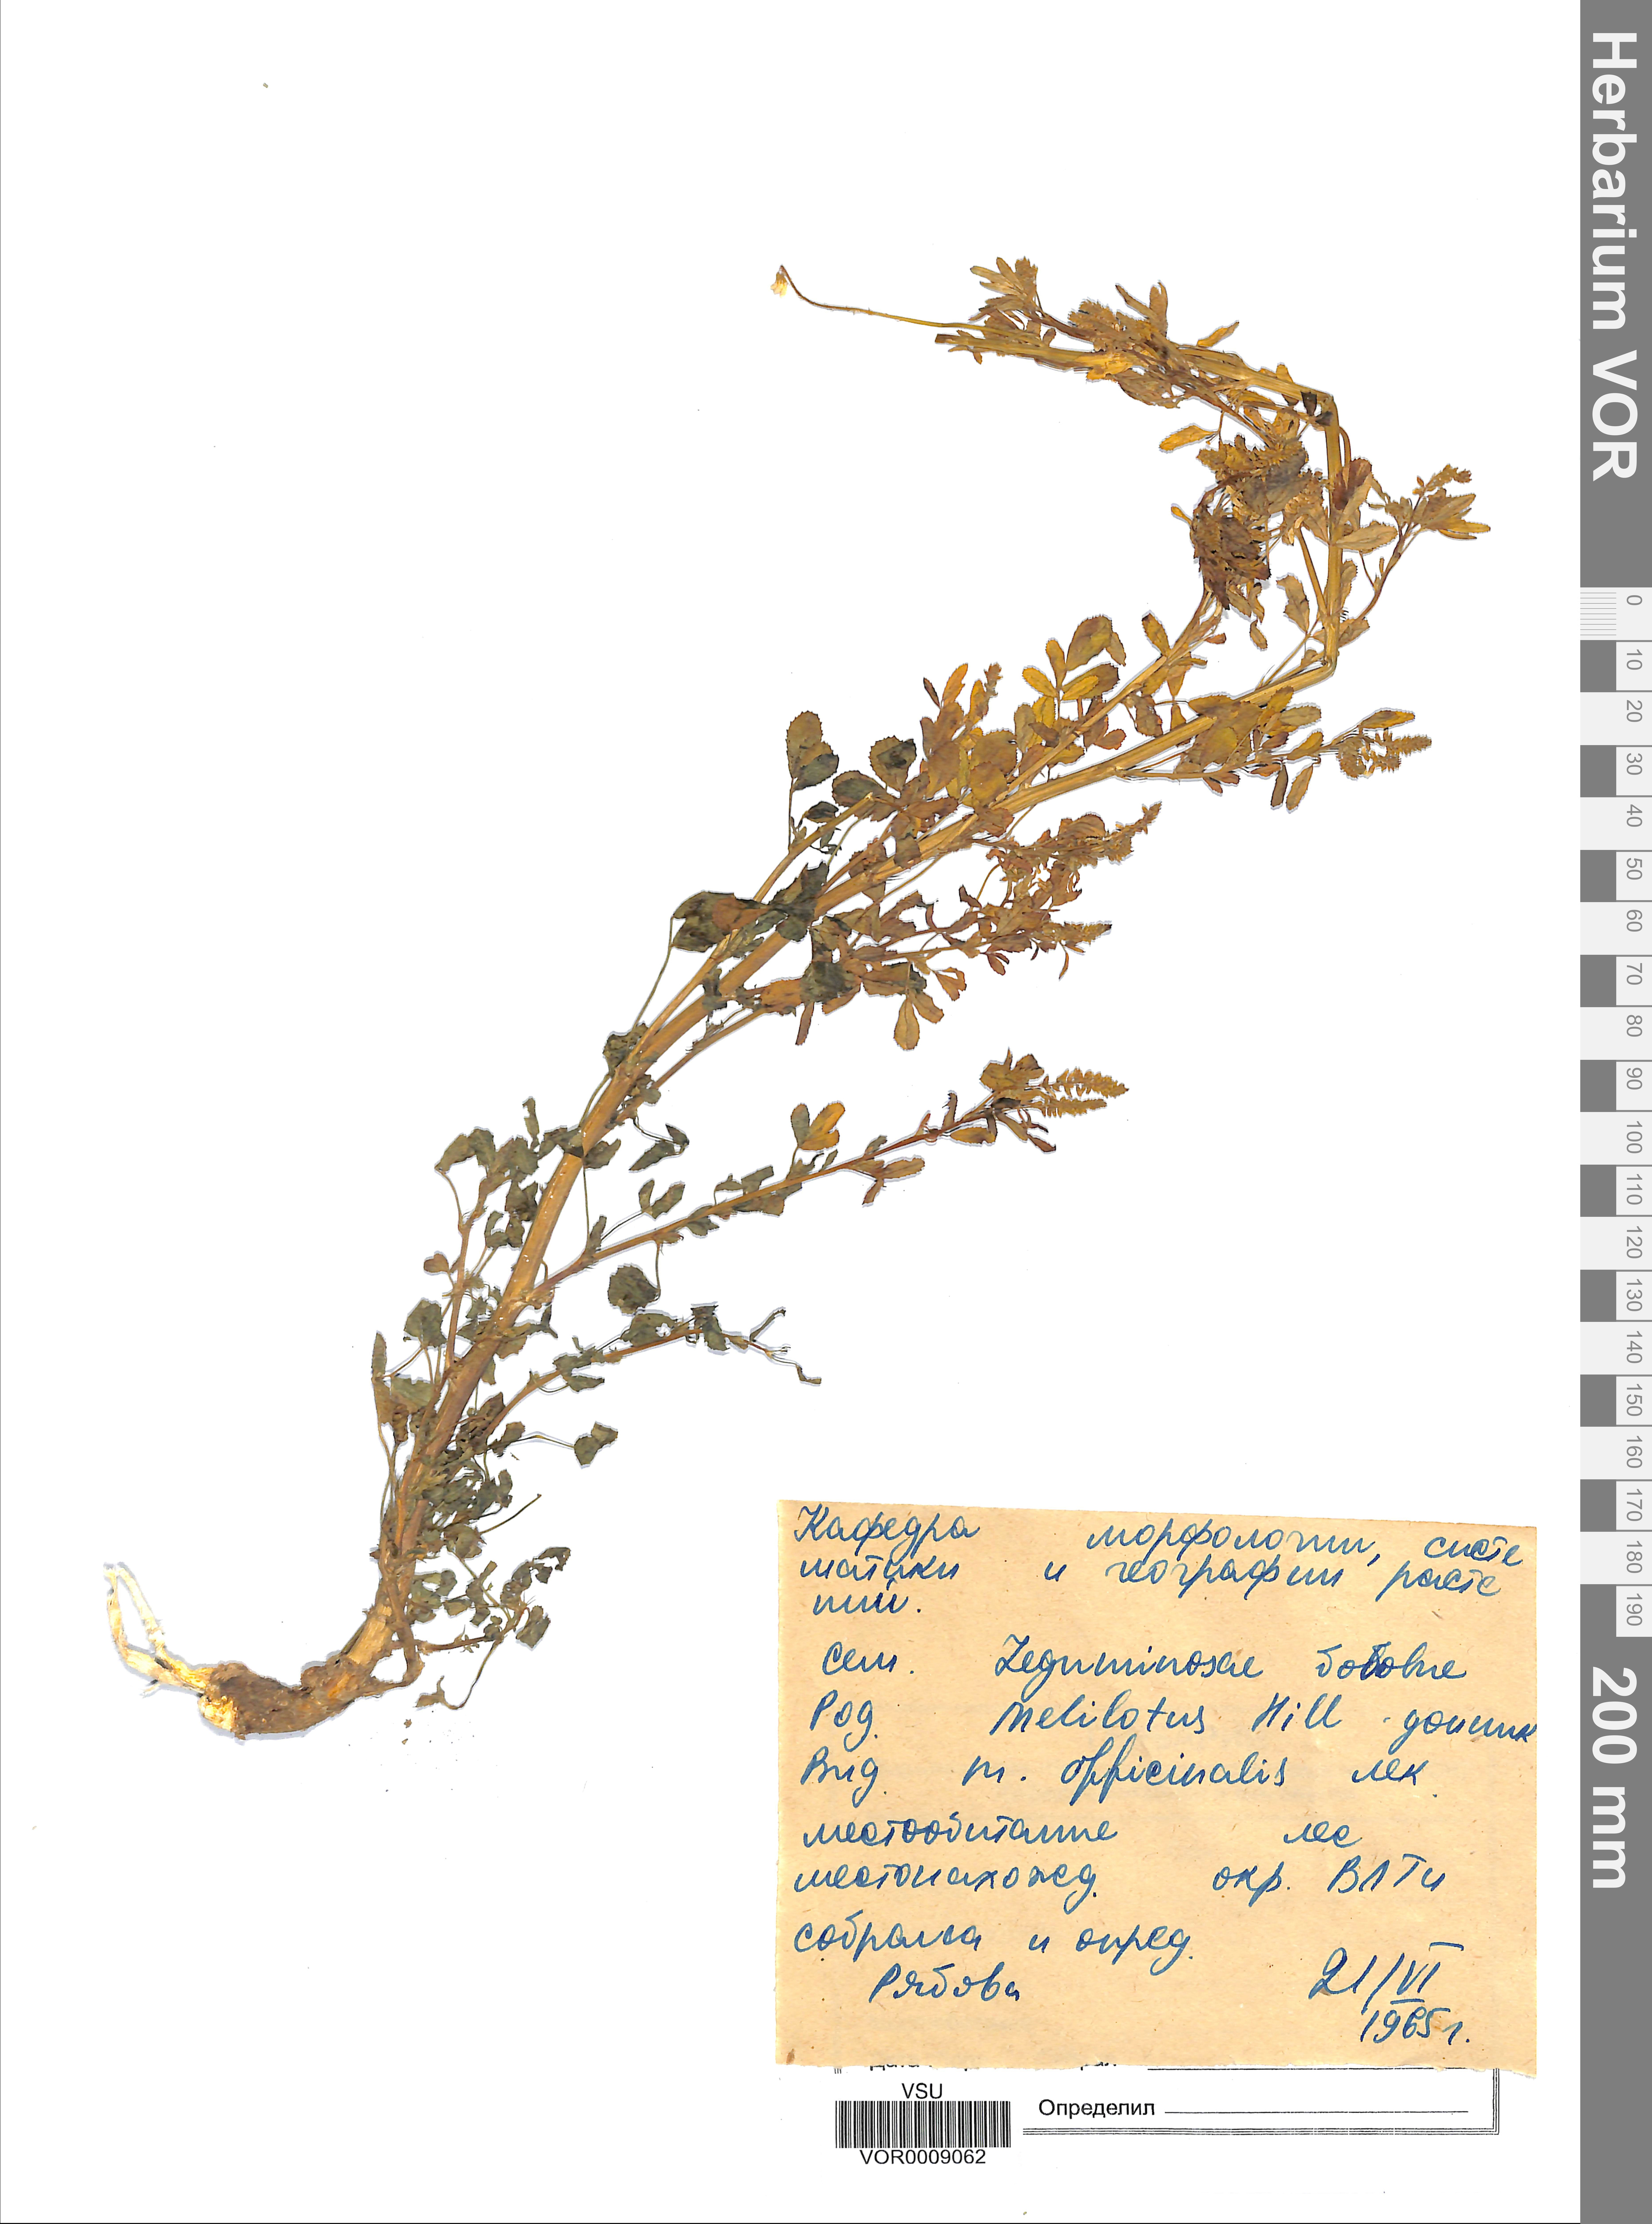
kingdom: Plantae
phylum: Tracheophyta
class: Magnoliopsida
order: Fabales
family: Fabaceae
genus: Melilotus
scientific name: Melilotus officinalis
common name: Sweetclover
